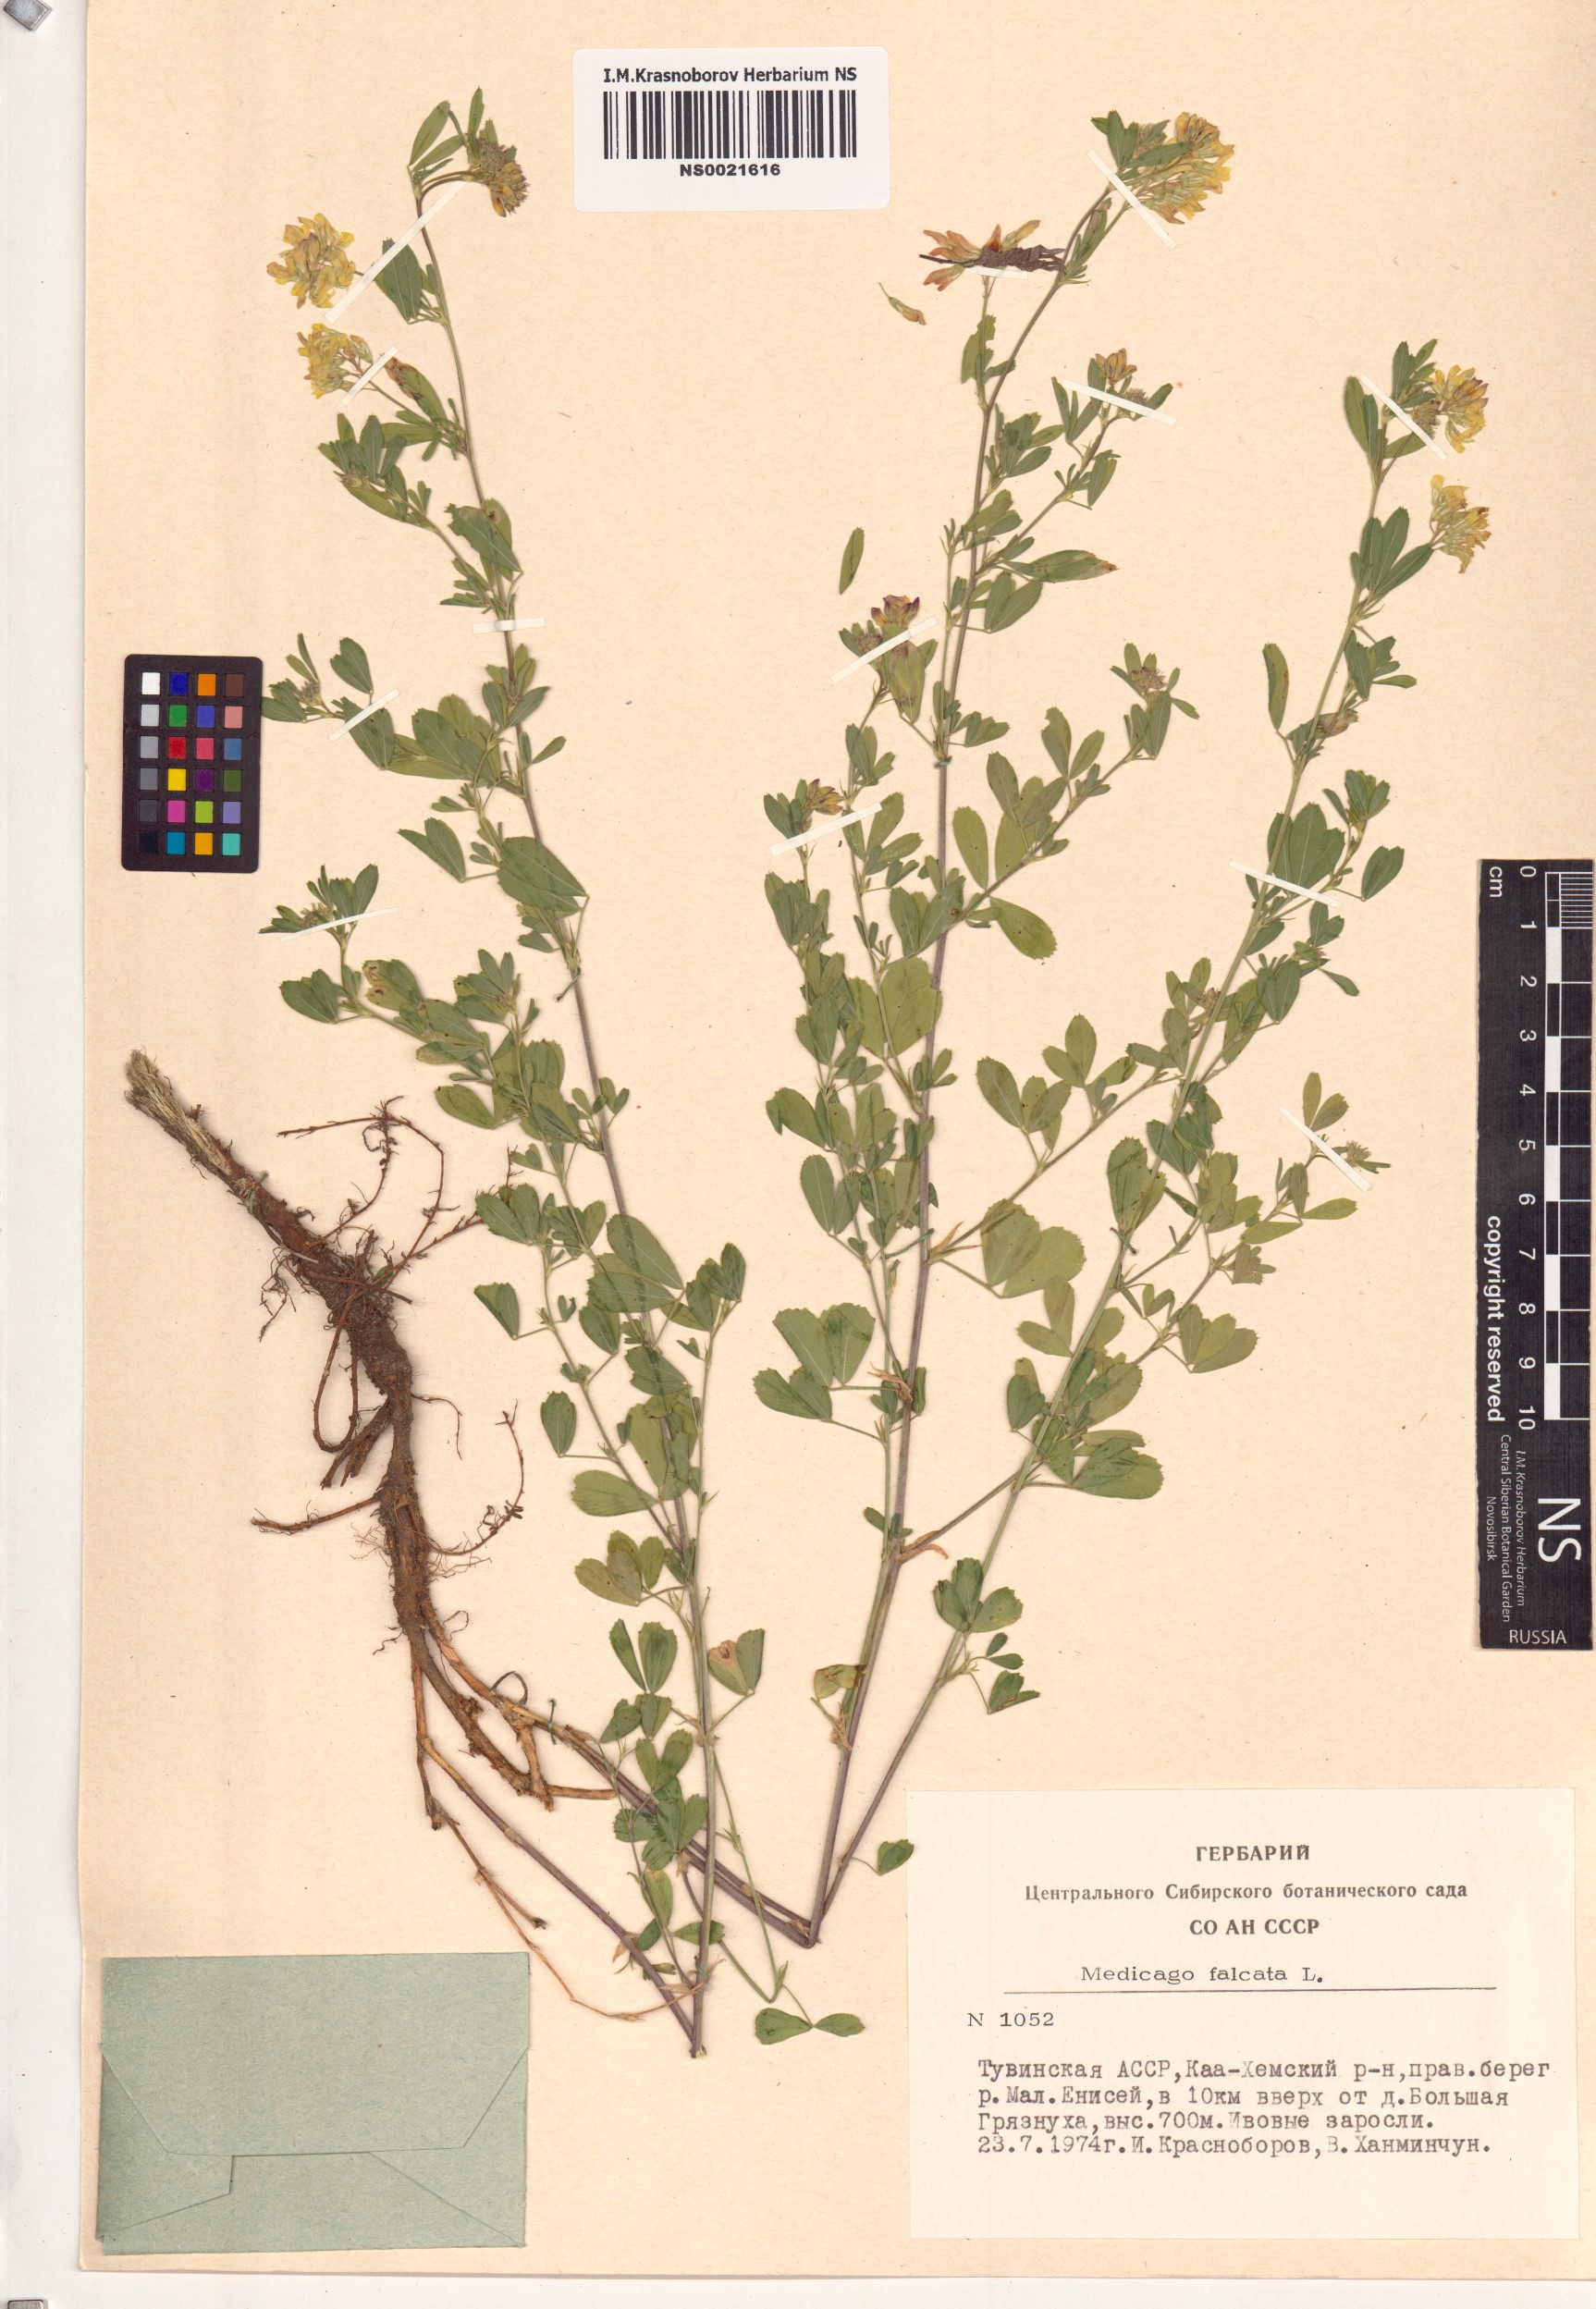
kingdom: Plantae
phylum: Tracheophyta
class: Magnoliopsida
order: Fabales
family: Fabaceae
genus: Medicago
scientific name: Medicago falcata
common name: Sickle medick
